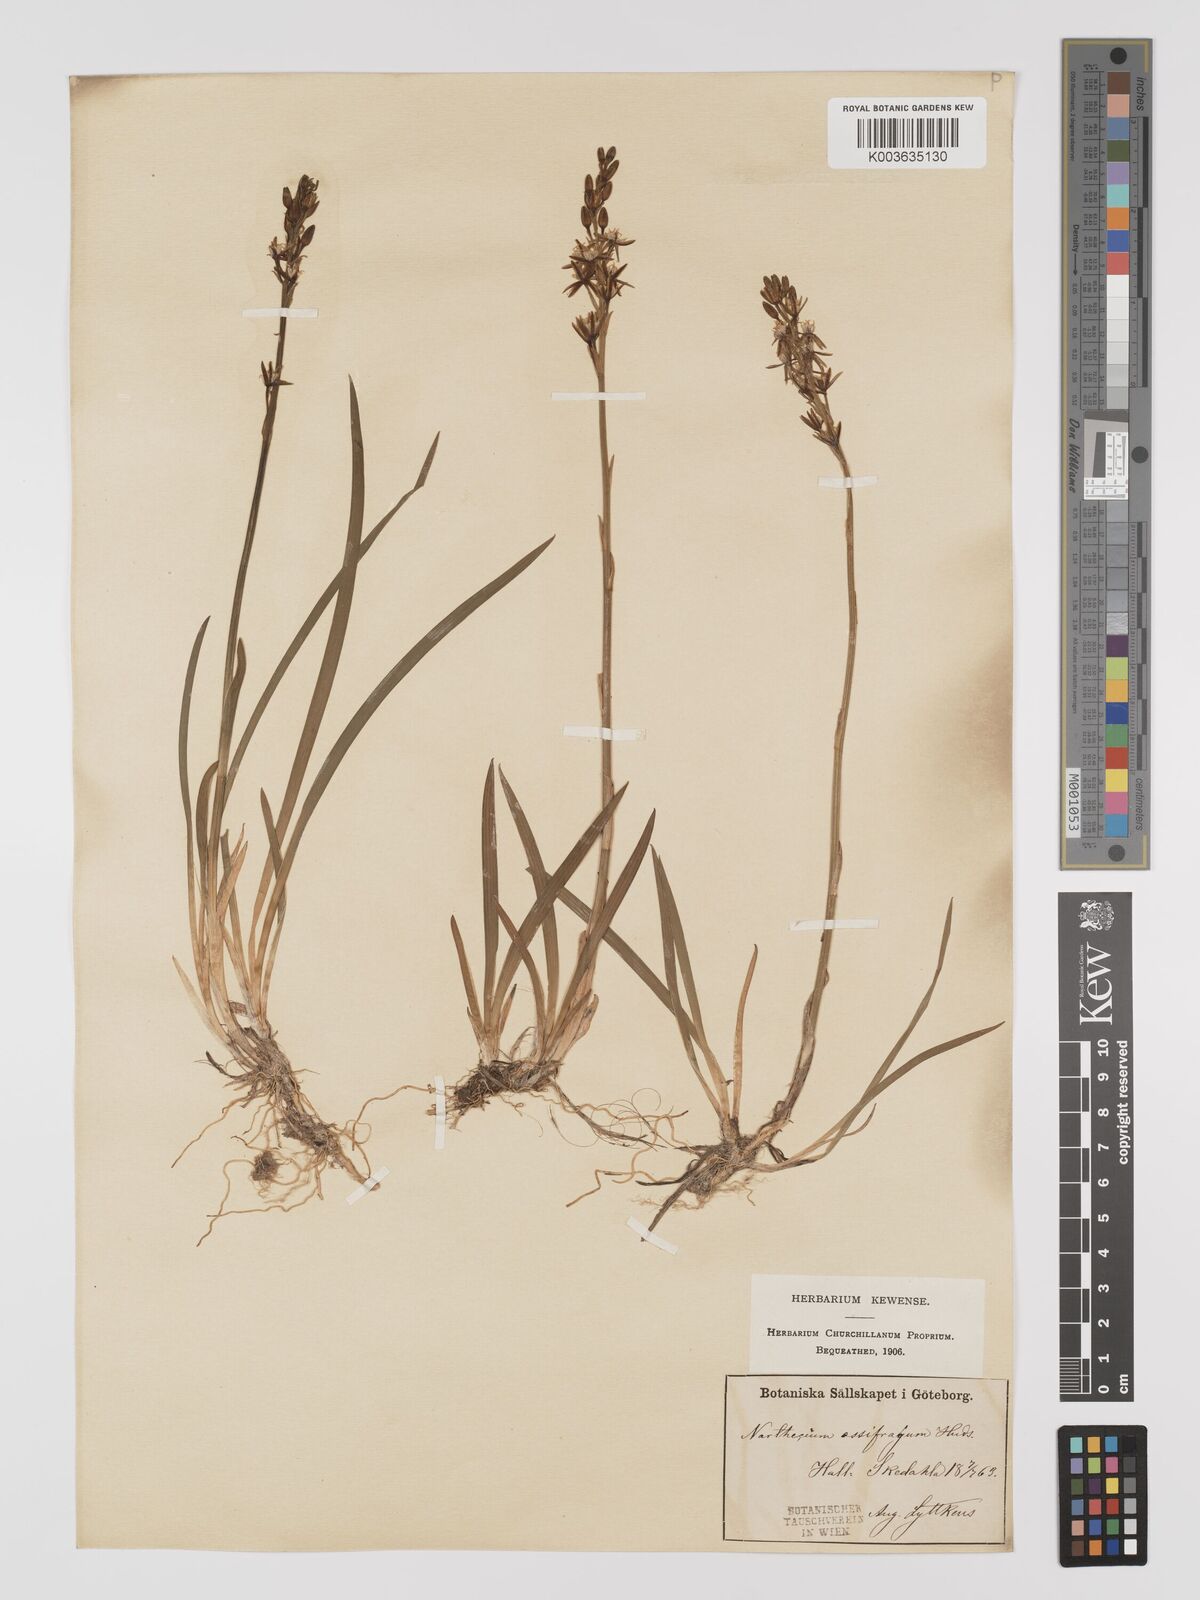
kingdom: Plantae
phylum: Tracheophyta
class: Liliopsida
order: Dioscoreales
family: Nartheciaceae
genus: Narthecium
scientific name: Narthecium ossifragum
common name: Bog asphodel
